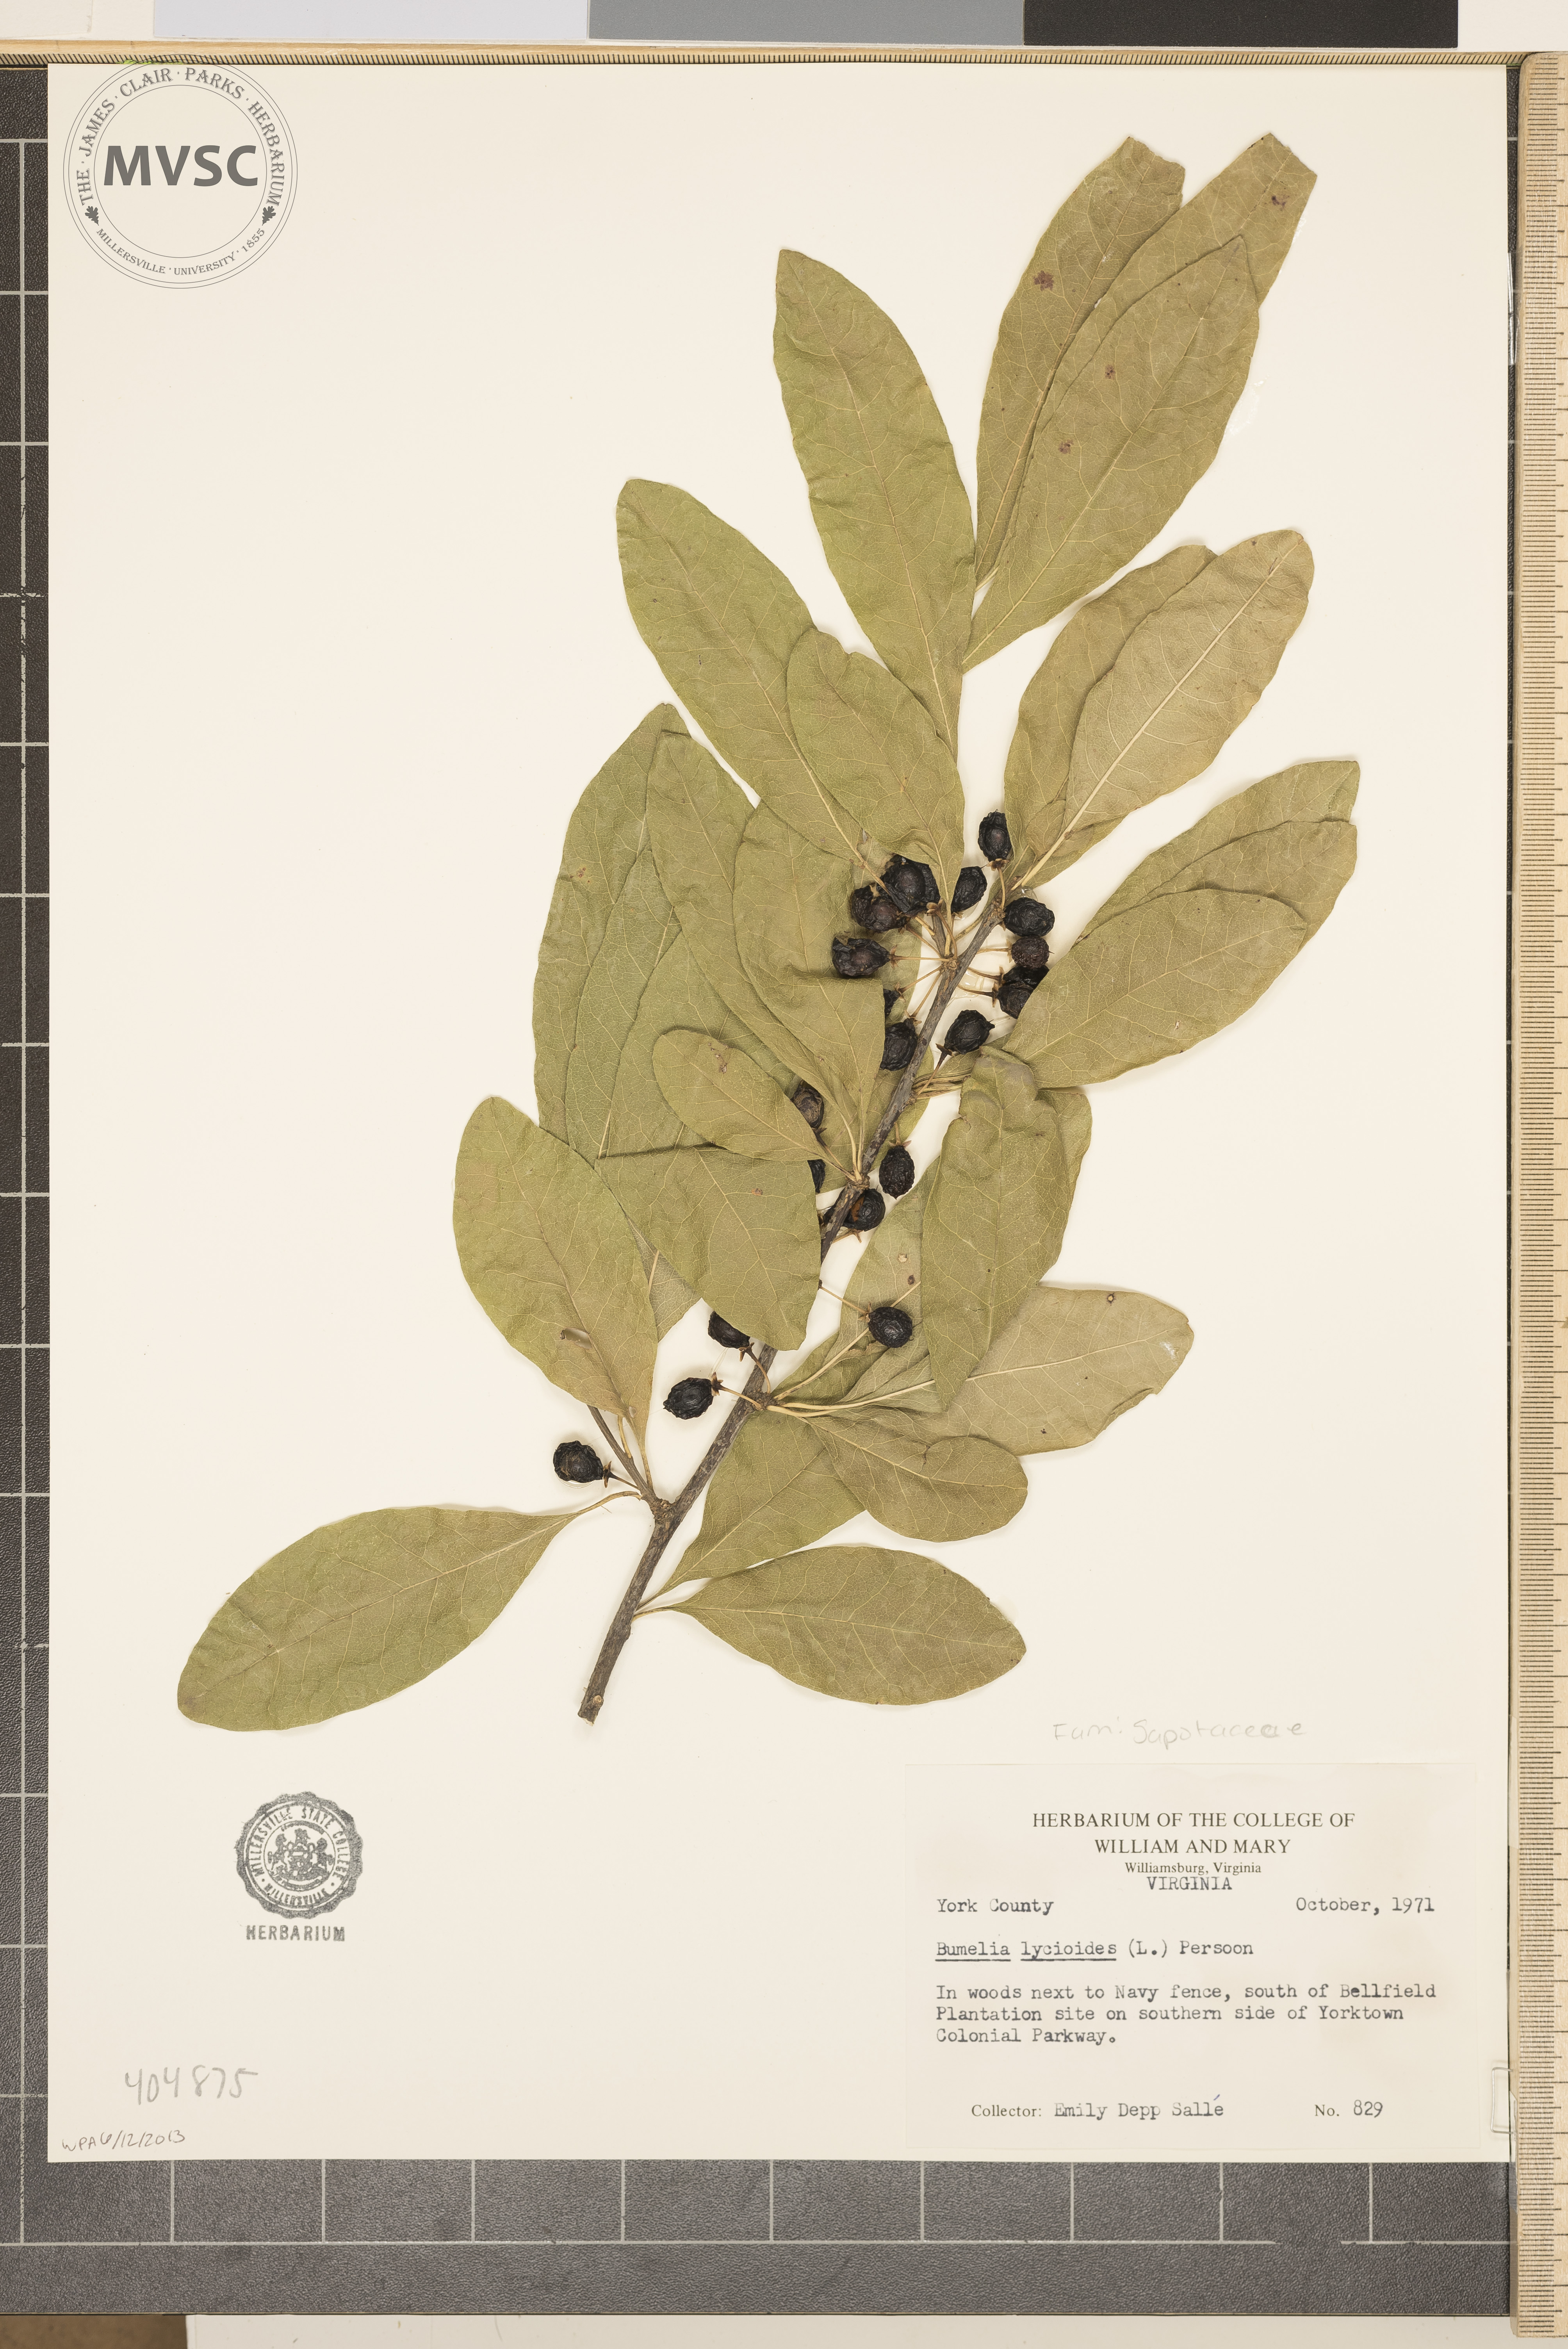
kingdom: Plantae
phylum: Tracheophyta
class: Magnoliopsida
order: Ericales
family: Sapotaceae
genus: Sideroxylon
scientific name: Sideroxylon lycioides
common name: Buckthorn bumelia
